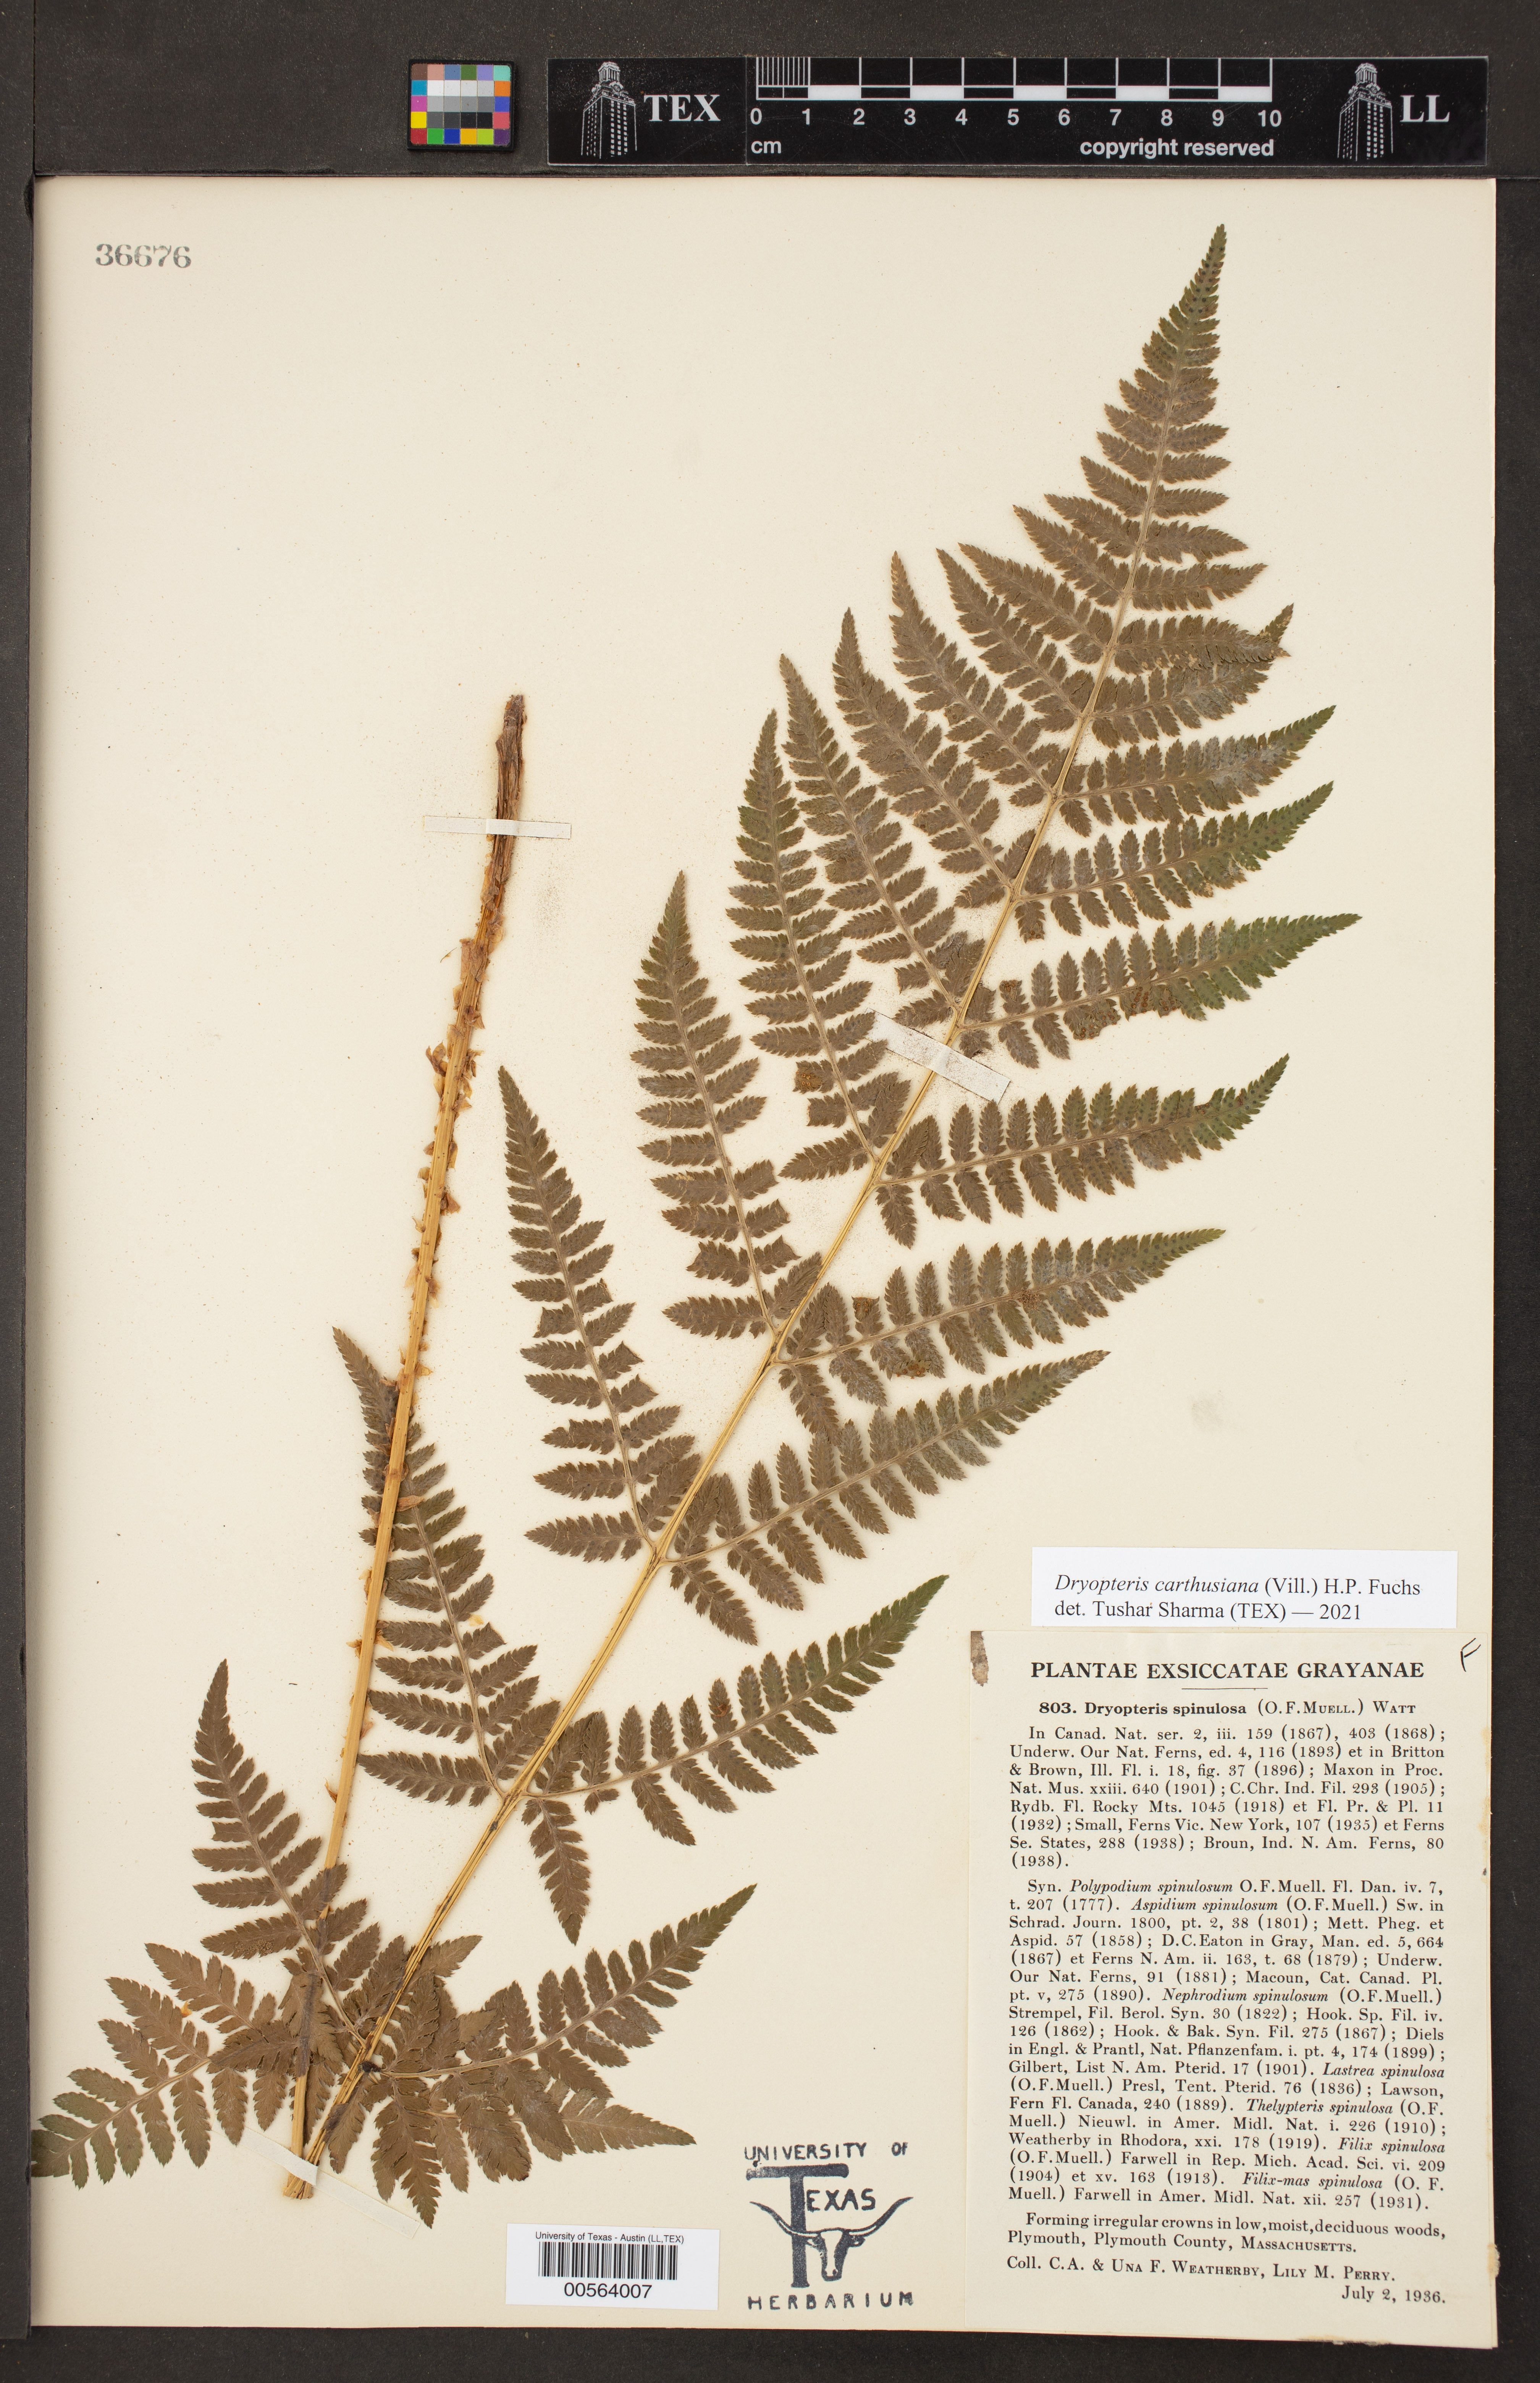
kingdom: Plantae
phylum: Tracheophyta
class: Polypodiopsida
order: Polypodiales
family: Dryopteridaceae
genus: Dryopteris
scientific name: Dryopteris carthusiana
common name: Narrow buckler-fern
